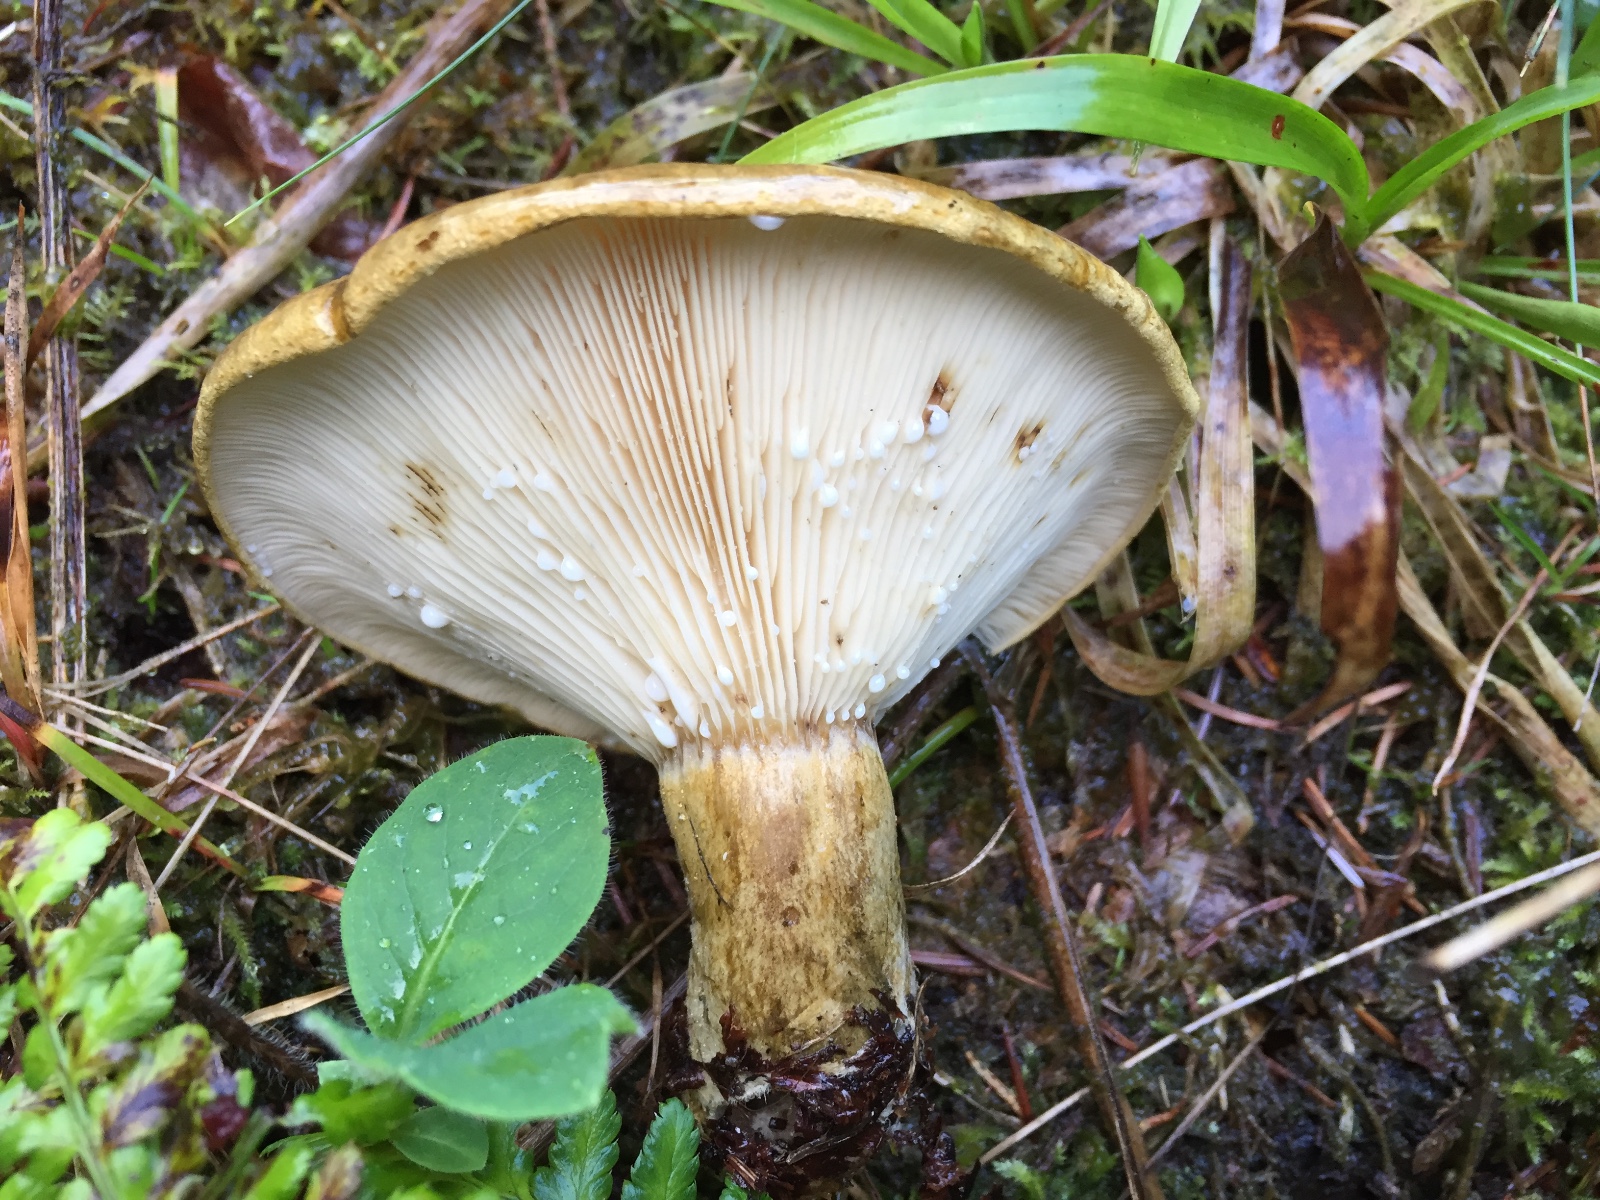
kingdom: Fungi
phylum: Basidiomycota
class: Agaricomycetes
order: Russulales
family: Russulaceae
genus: Lactarius
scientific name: Lactarius necator
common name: manddraber-mælkehat
